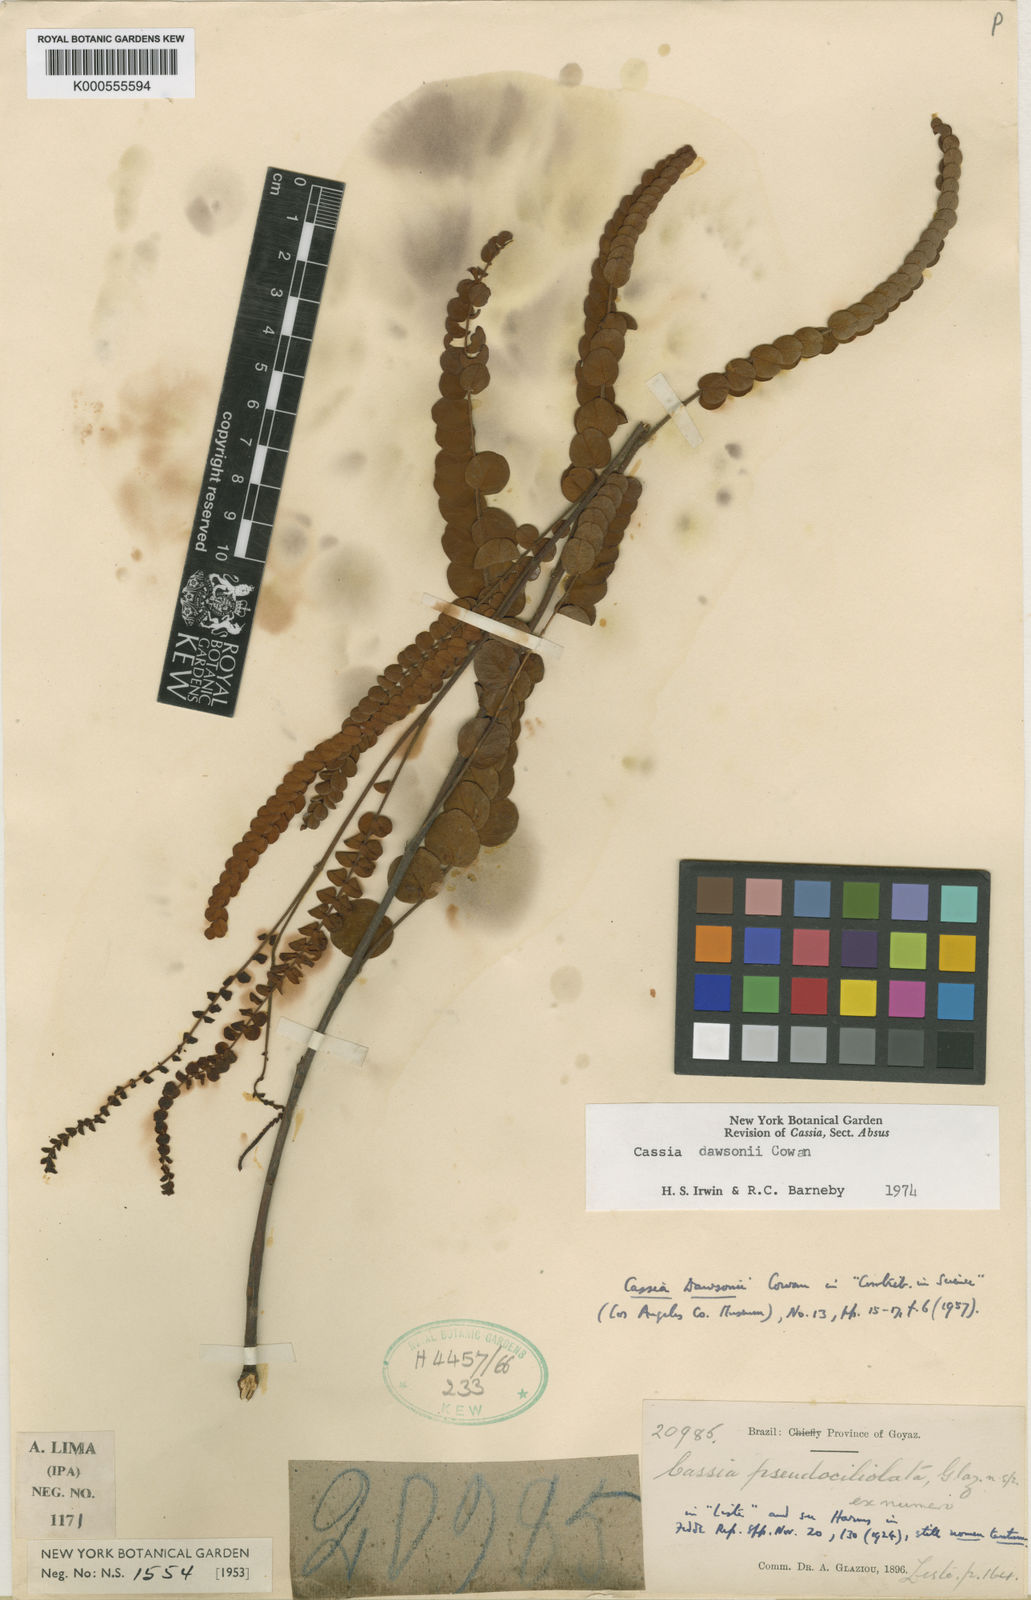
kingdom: Plantae
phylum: Tracheophyta
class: Magnoliopsida
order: Fabales
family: Fabaceae
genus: Chamaecrista
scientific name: Chamaecrista dawsonii
